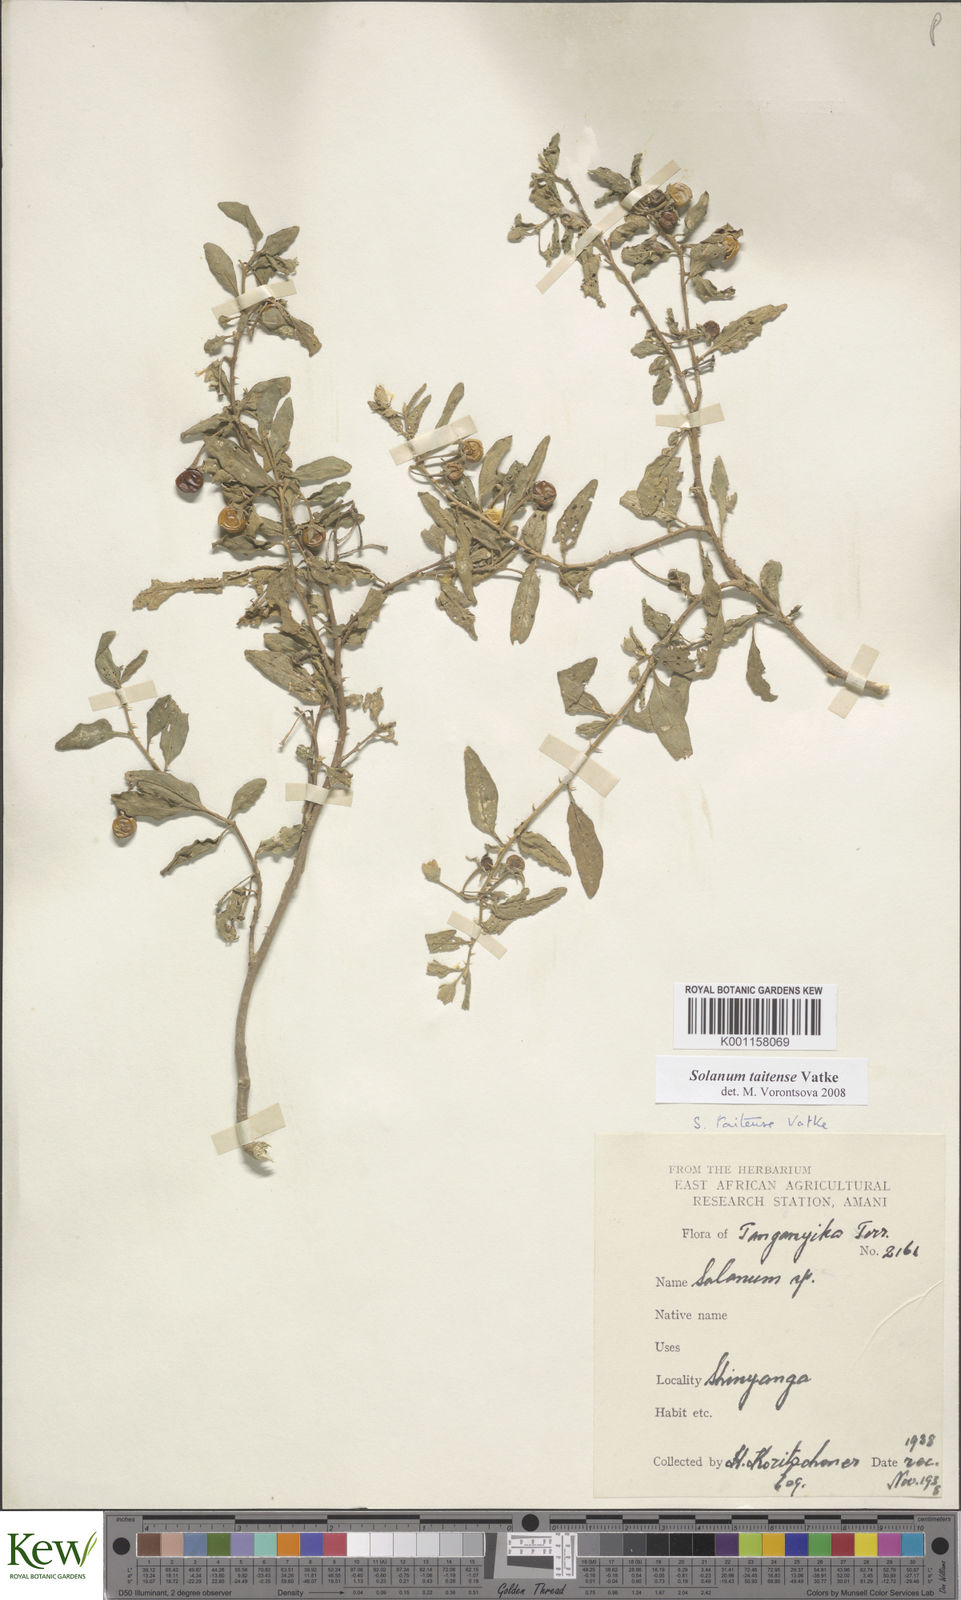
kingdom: Plantae
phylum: Tracheophyta
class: Magnoliopsida
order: Solanales
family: Solanaceae
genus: Solanum
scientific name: Solanum taitense
